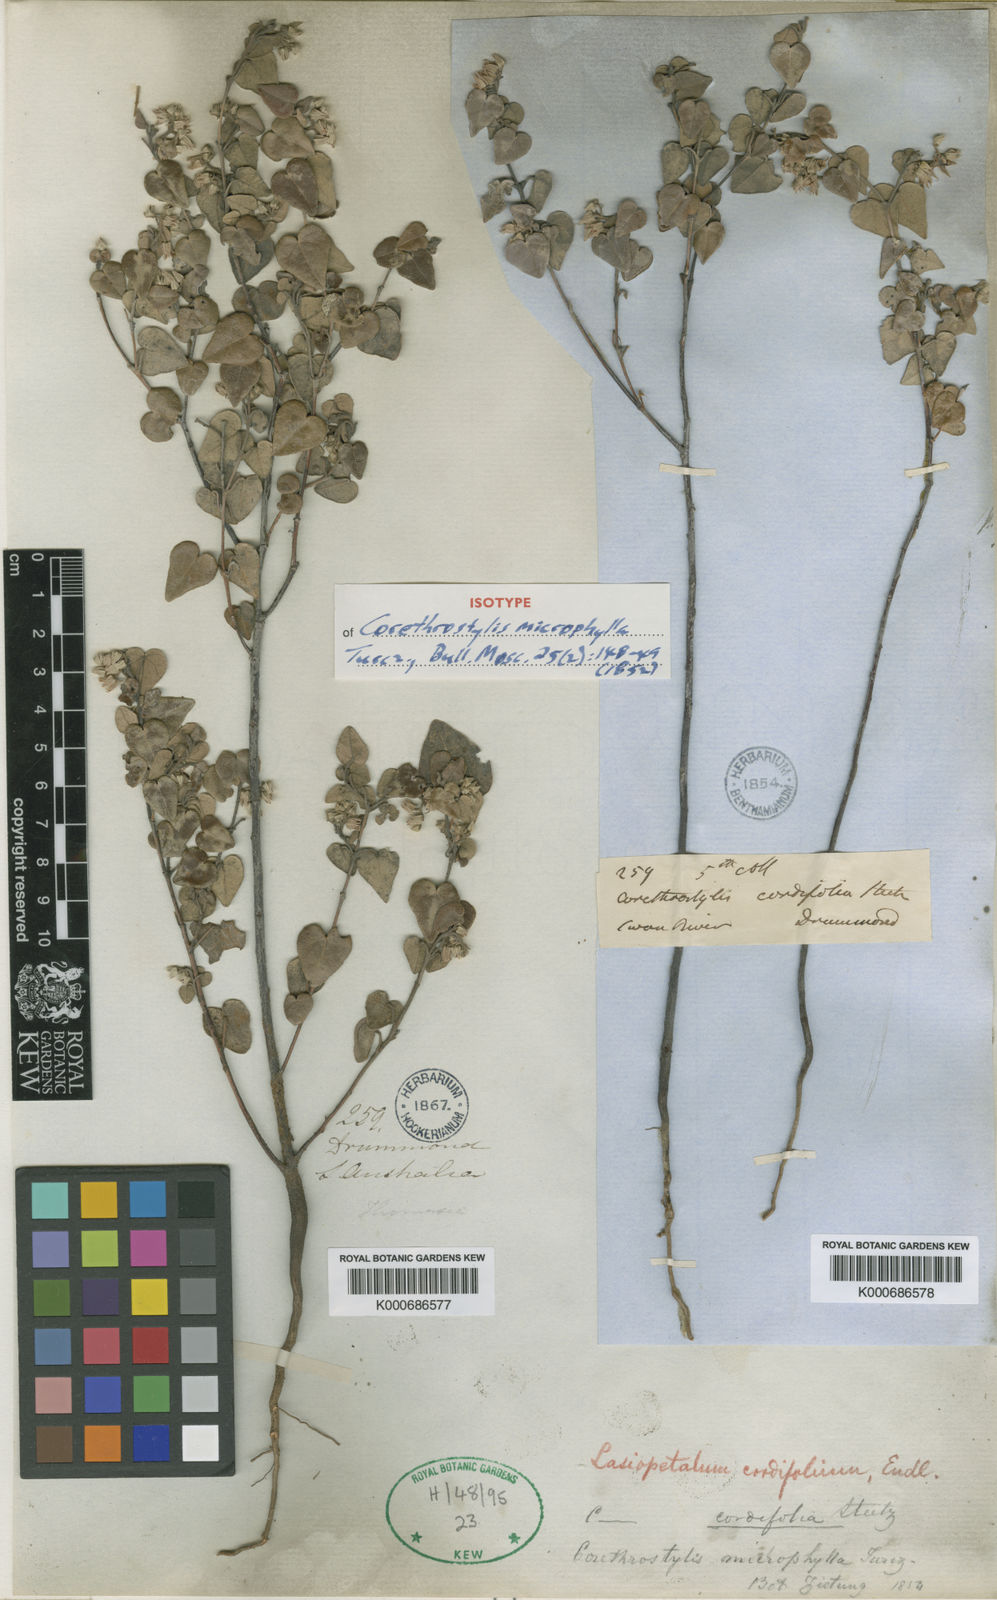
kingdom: Plantae
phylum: Tracheophyta
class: Magnoliopsida
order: Malvales
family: Malvaceae
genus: Lasiopetalum
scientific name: Lasiopetalum cordifolium
